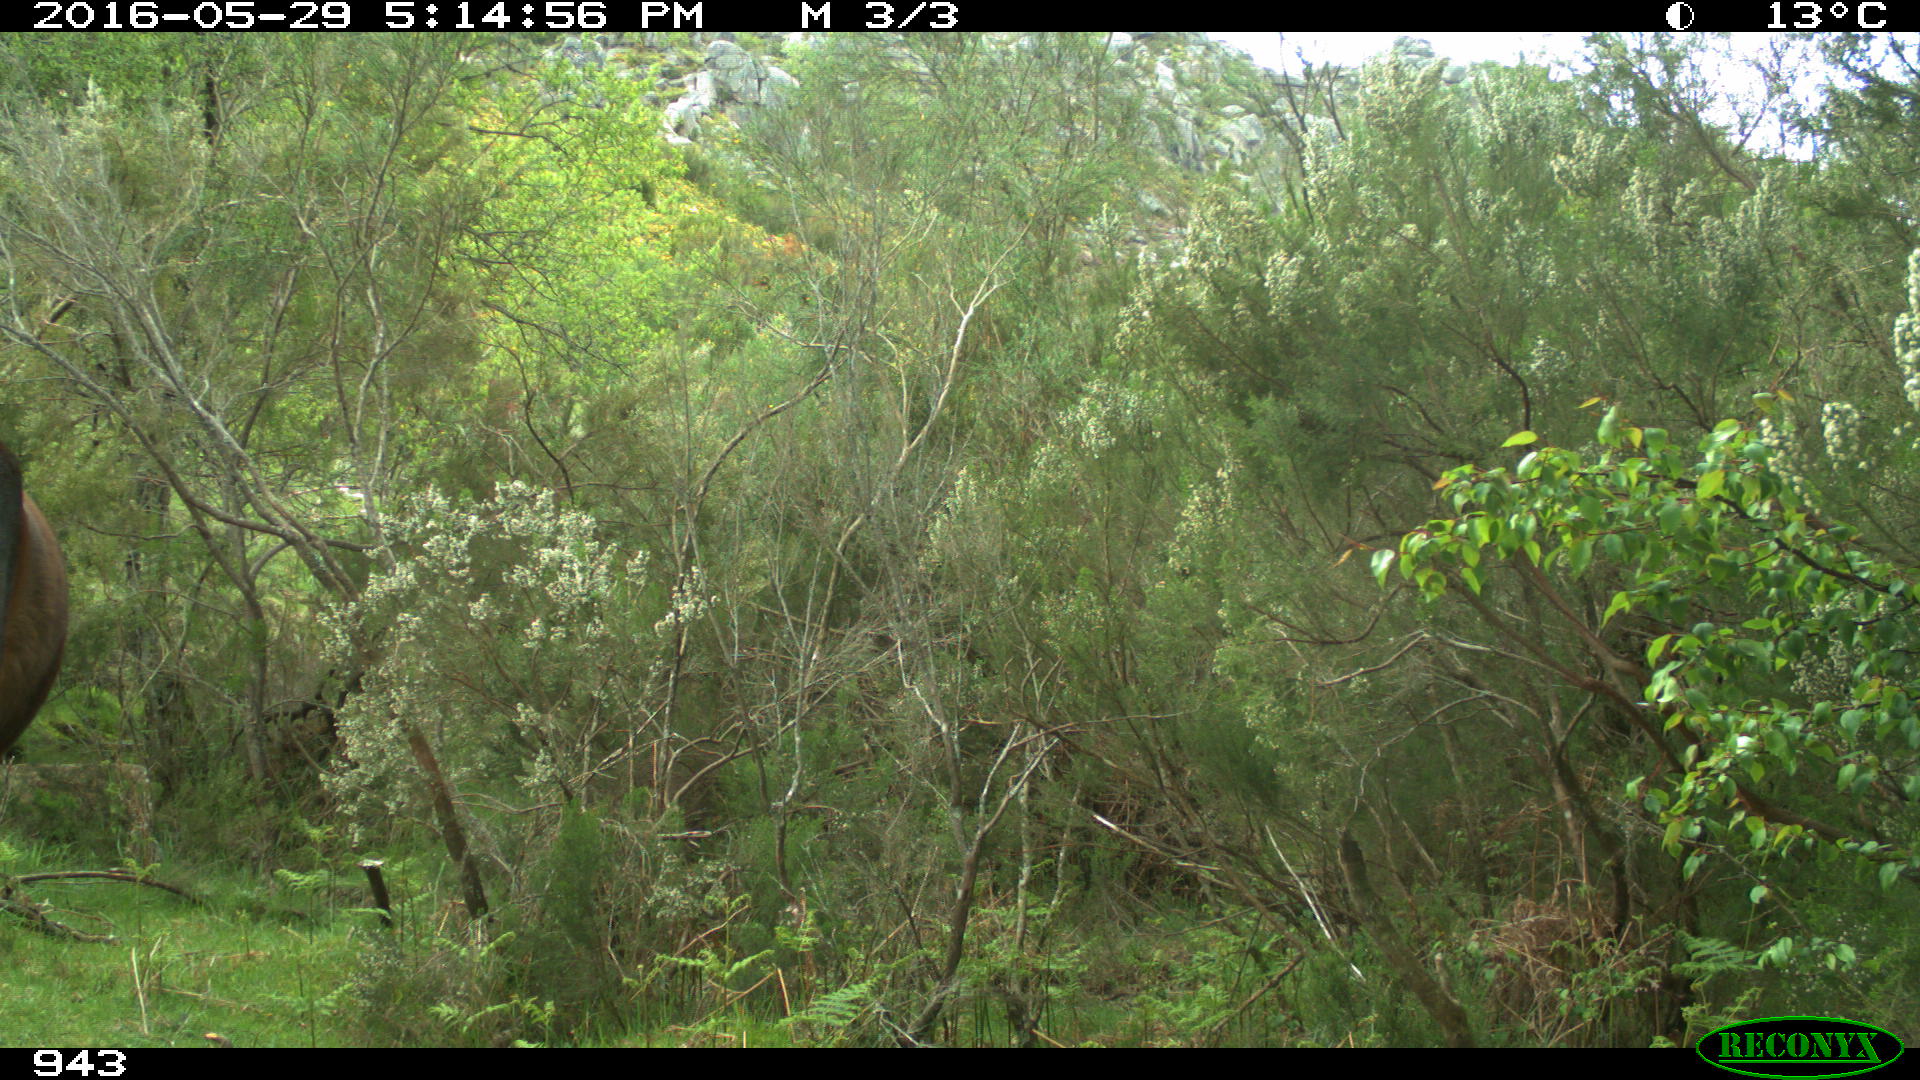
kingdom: Animalia
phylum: Chordata
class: Mammalia
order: Perissodactyla
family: Equidae
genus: Equus
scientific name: Equus caballus
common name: Horse
